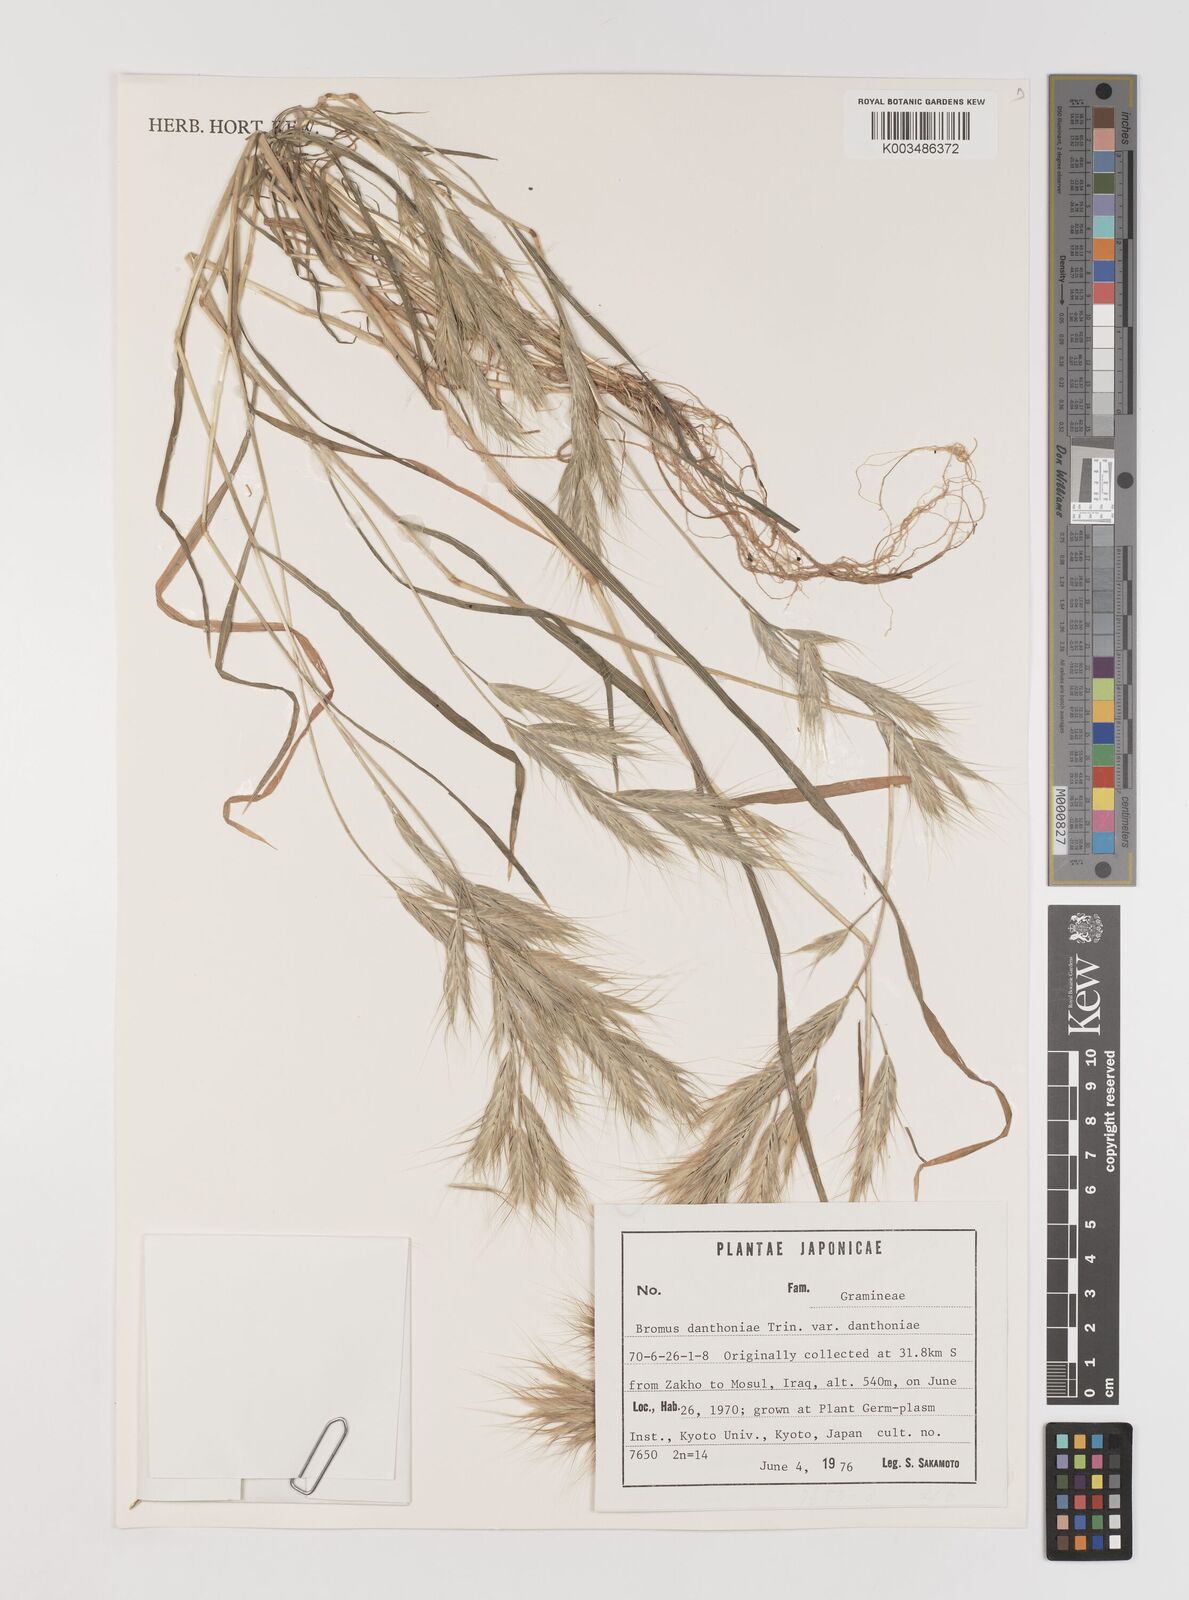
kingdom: Plantae
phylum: Tracheophyta
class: Liliopsida
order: Poales
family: Poaceae
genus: Bromus
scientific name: Bromus danthoniae
